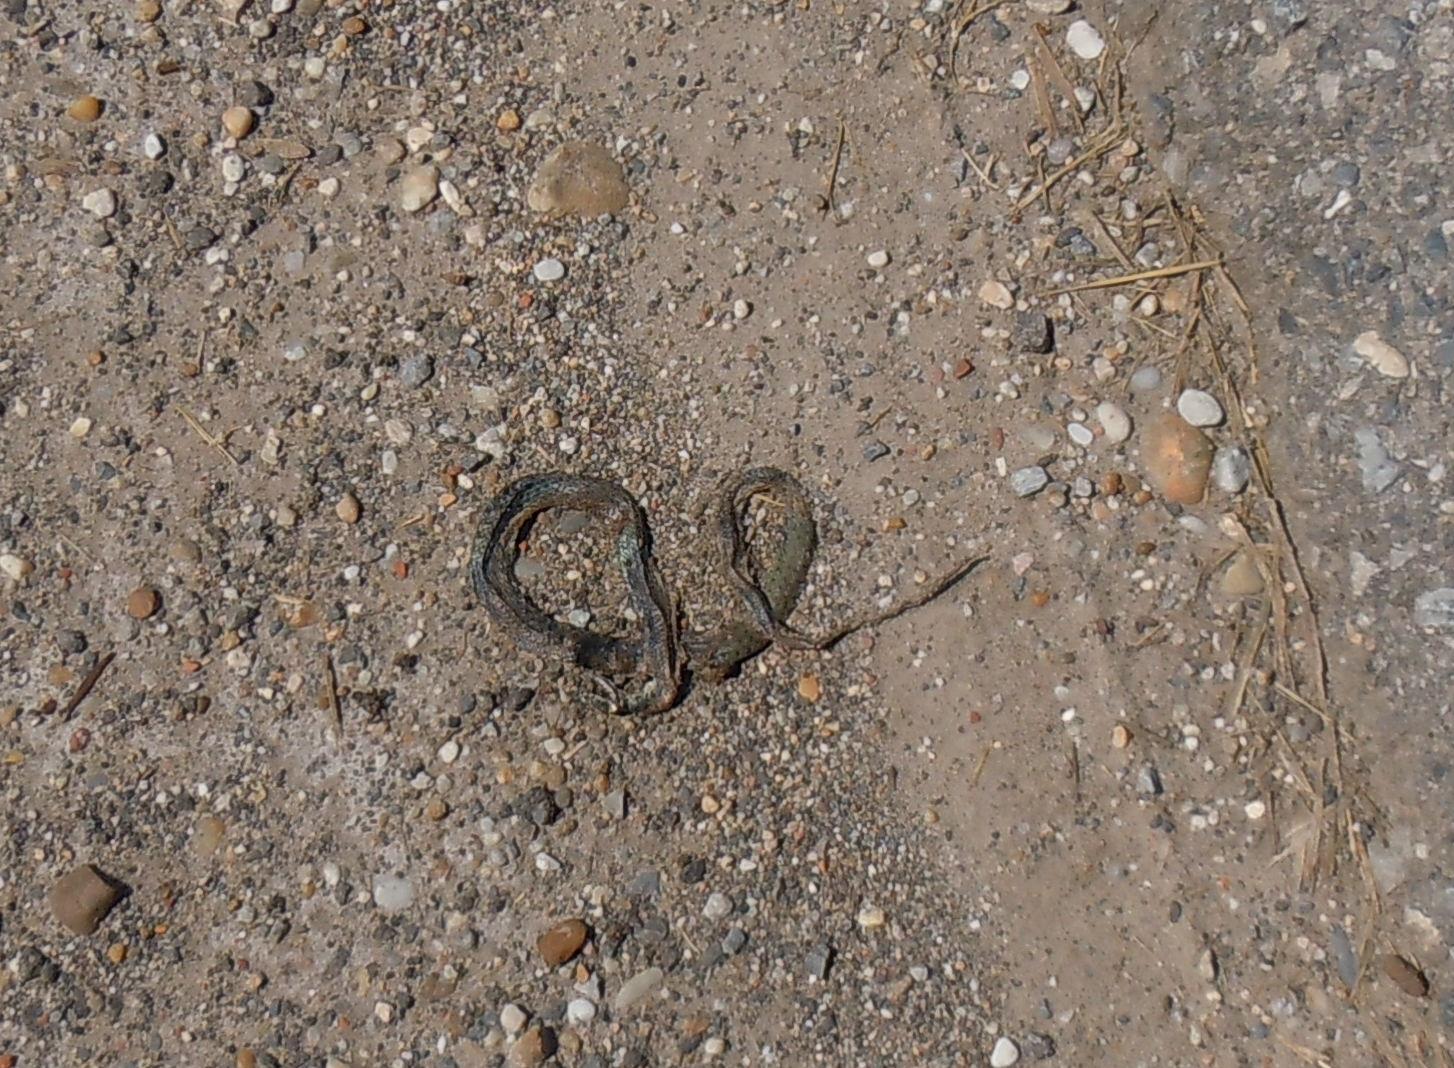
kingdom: Animalia
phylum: Chordata
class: Squamata
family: Colubridae
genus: Natrix
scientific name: Natrix natrix
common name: Grass snake
